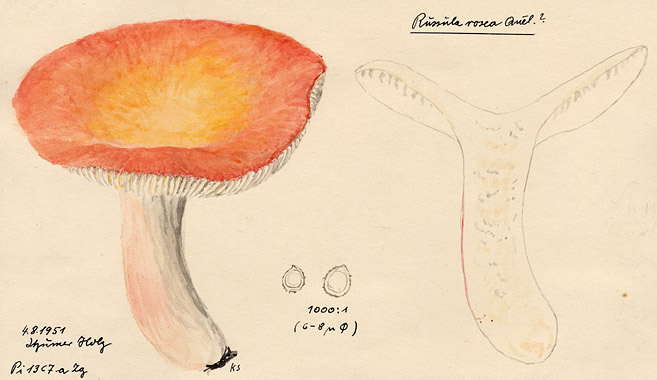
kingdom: Fungi
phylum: Basidiomycota
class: Agaricomycetes
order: Russulales
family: Russulaceae
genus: Russula
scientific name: Russula aurora
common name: Dawn brittlegill
